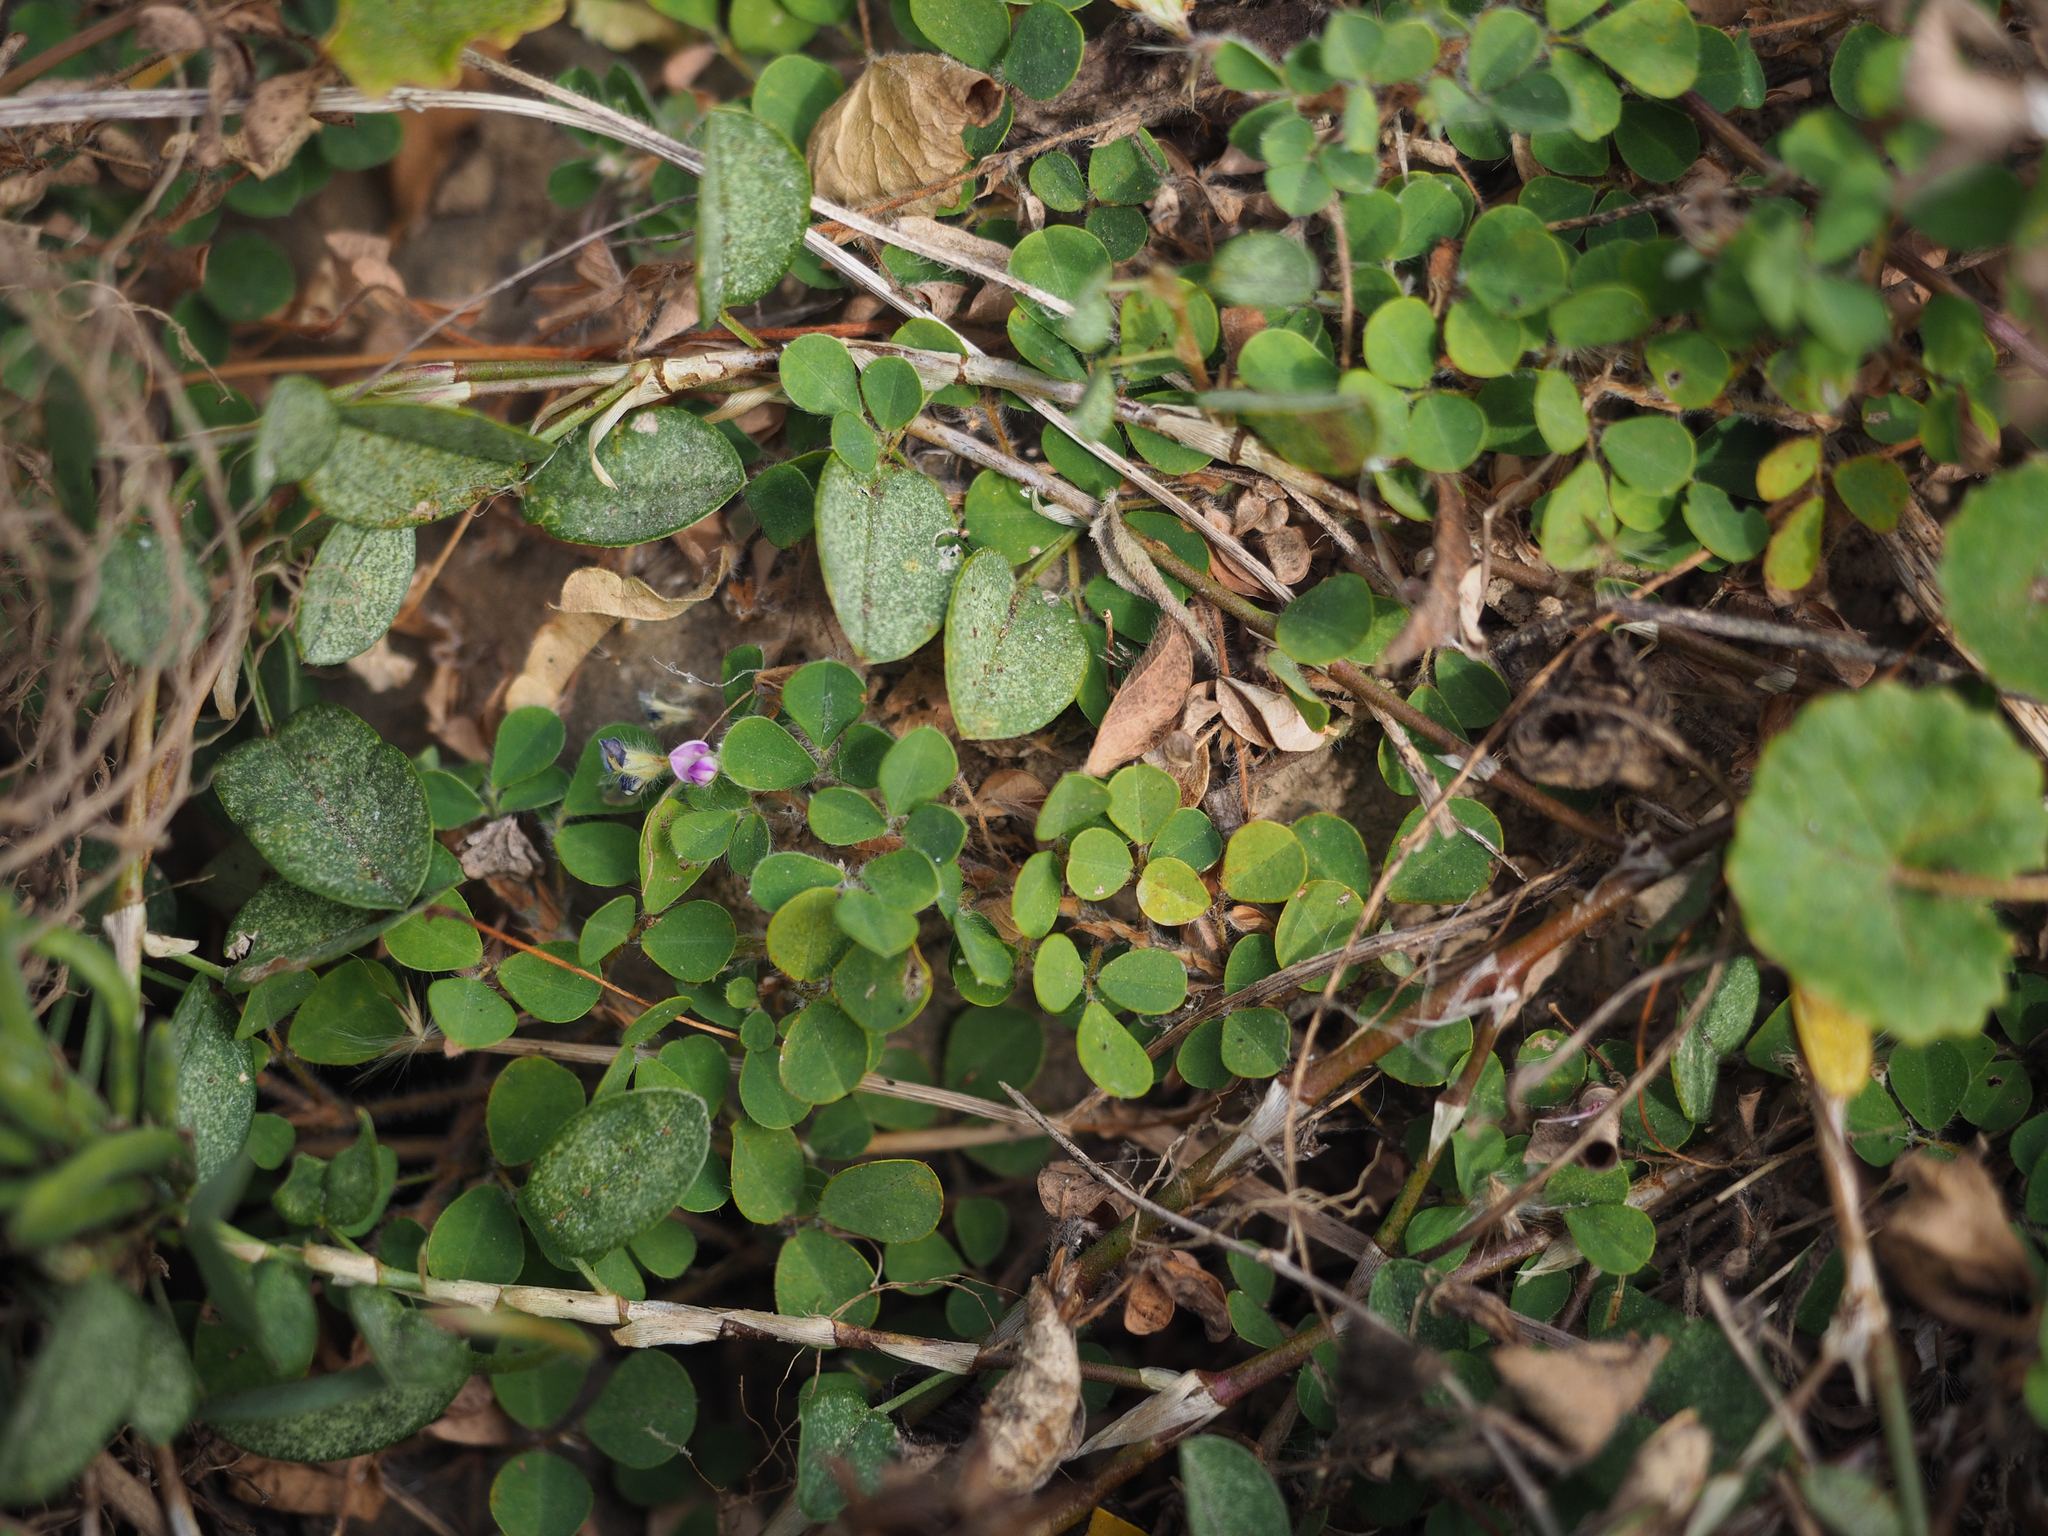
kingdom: Plantae
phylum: Tracheophyta
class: Magnoliopsida
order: Fabales
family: Fabaceae
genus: Grona
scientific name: Grona triflora
